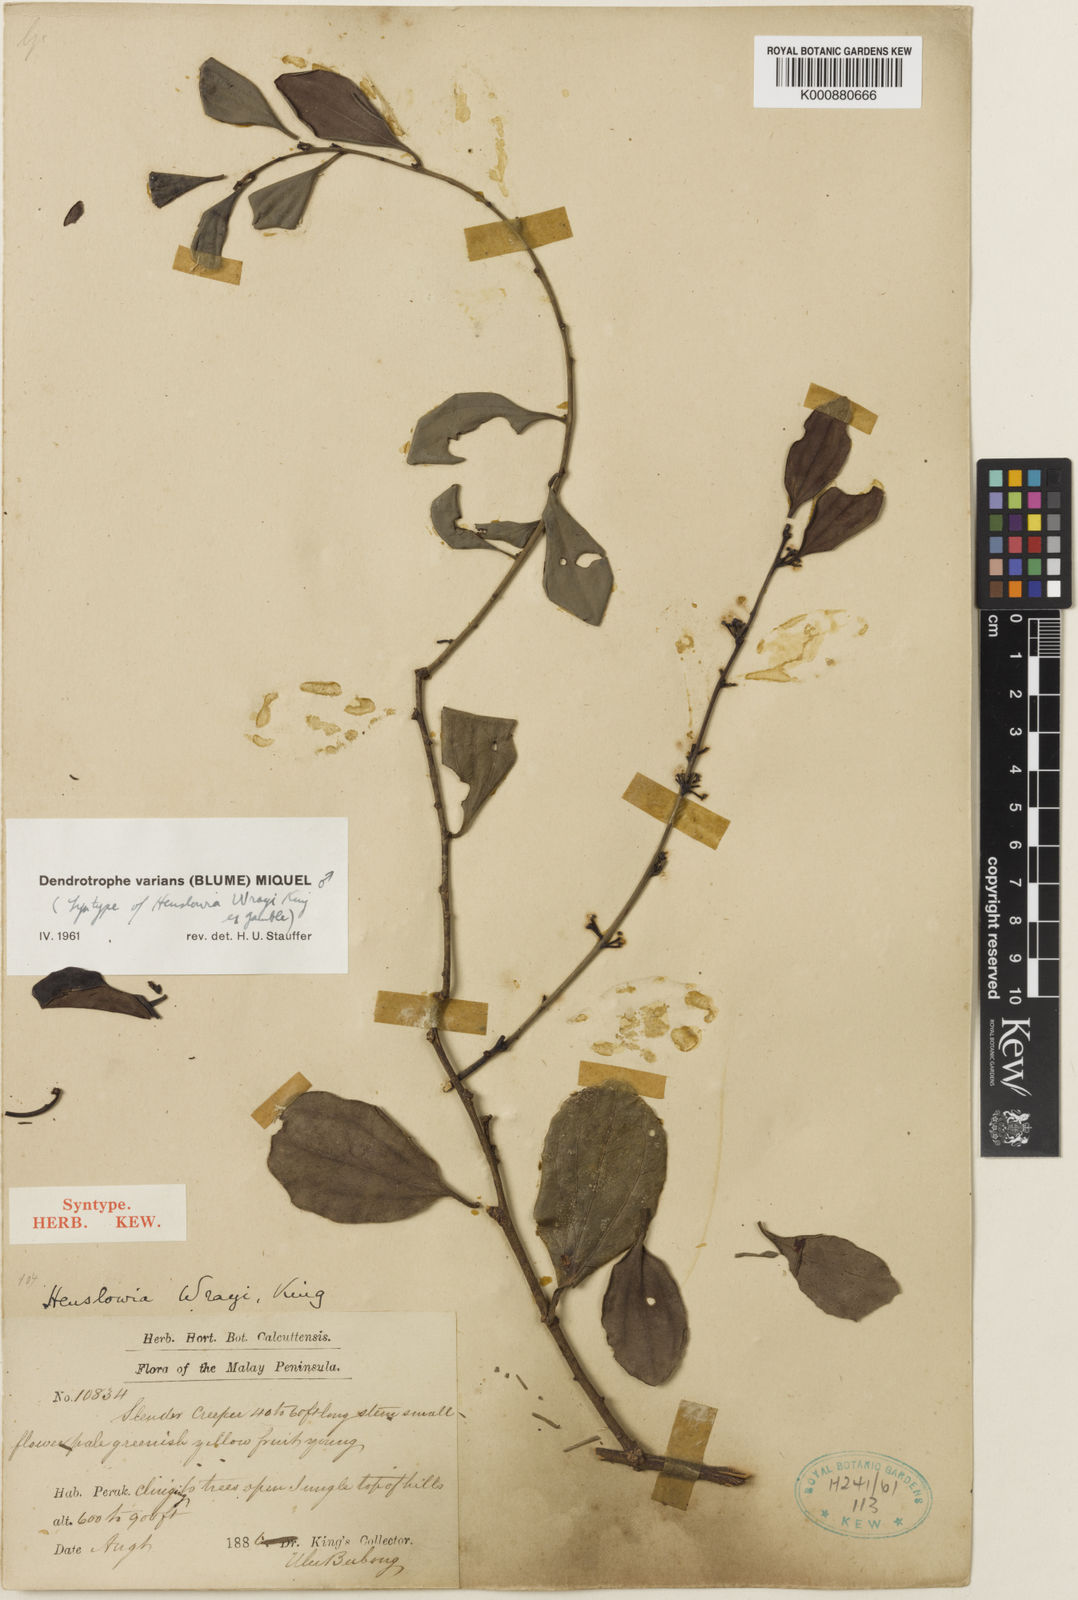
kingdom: Plantae
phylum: Tracheophyta
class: Magnoliopsida
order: Santalales
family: Amphorogynaceae
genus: Dendrotrophe
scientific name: Dendrotrophe varians
